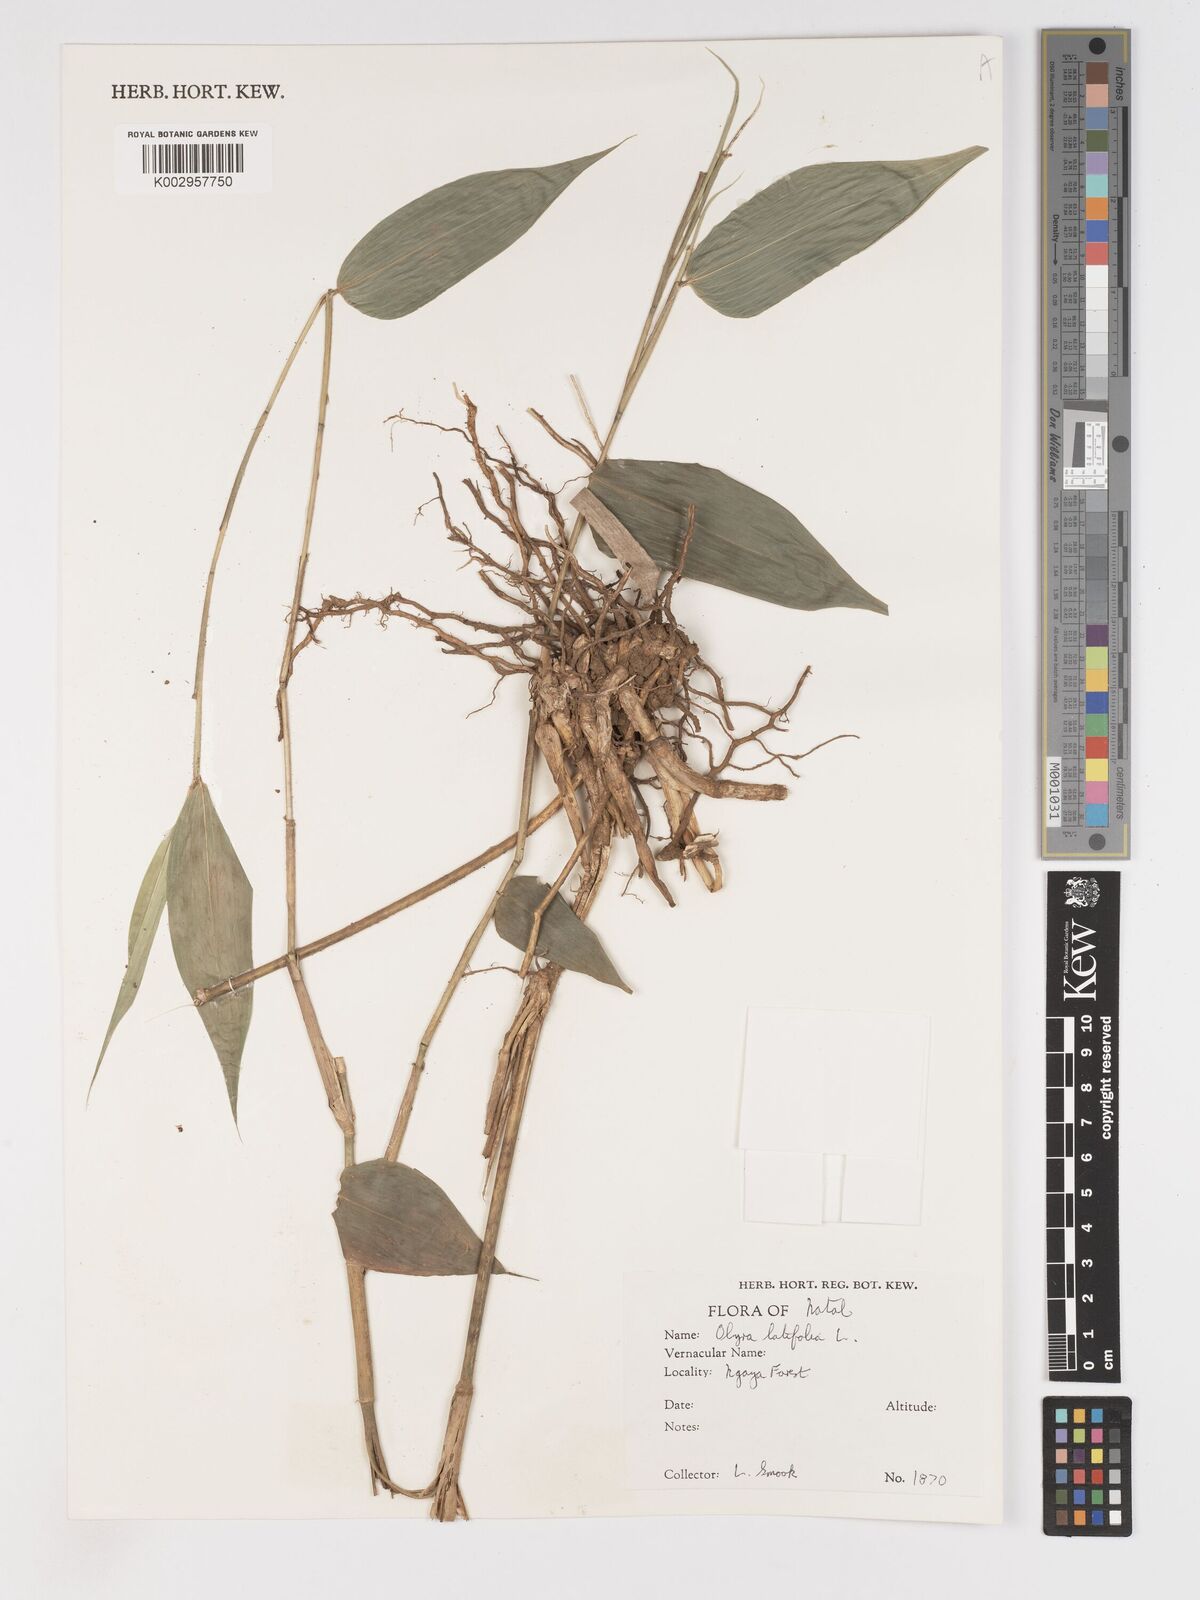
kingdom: Plantae
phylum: Tracheophyta
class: Liliopsida
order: Poales
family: Poaceae
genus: Olyra
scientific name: Olyra latifolia
